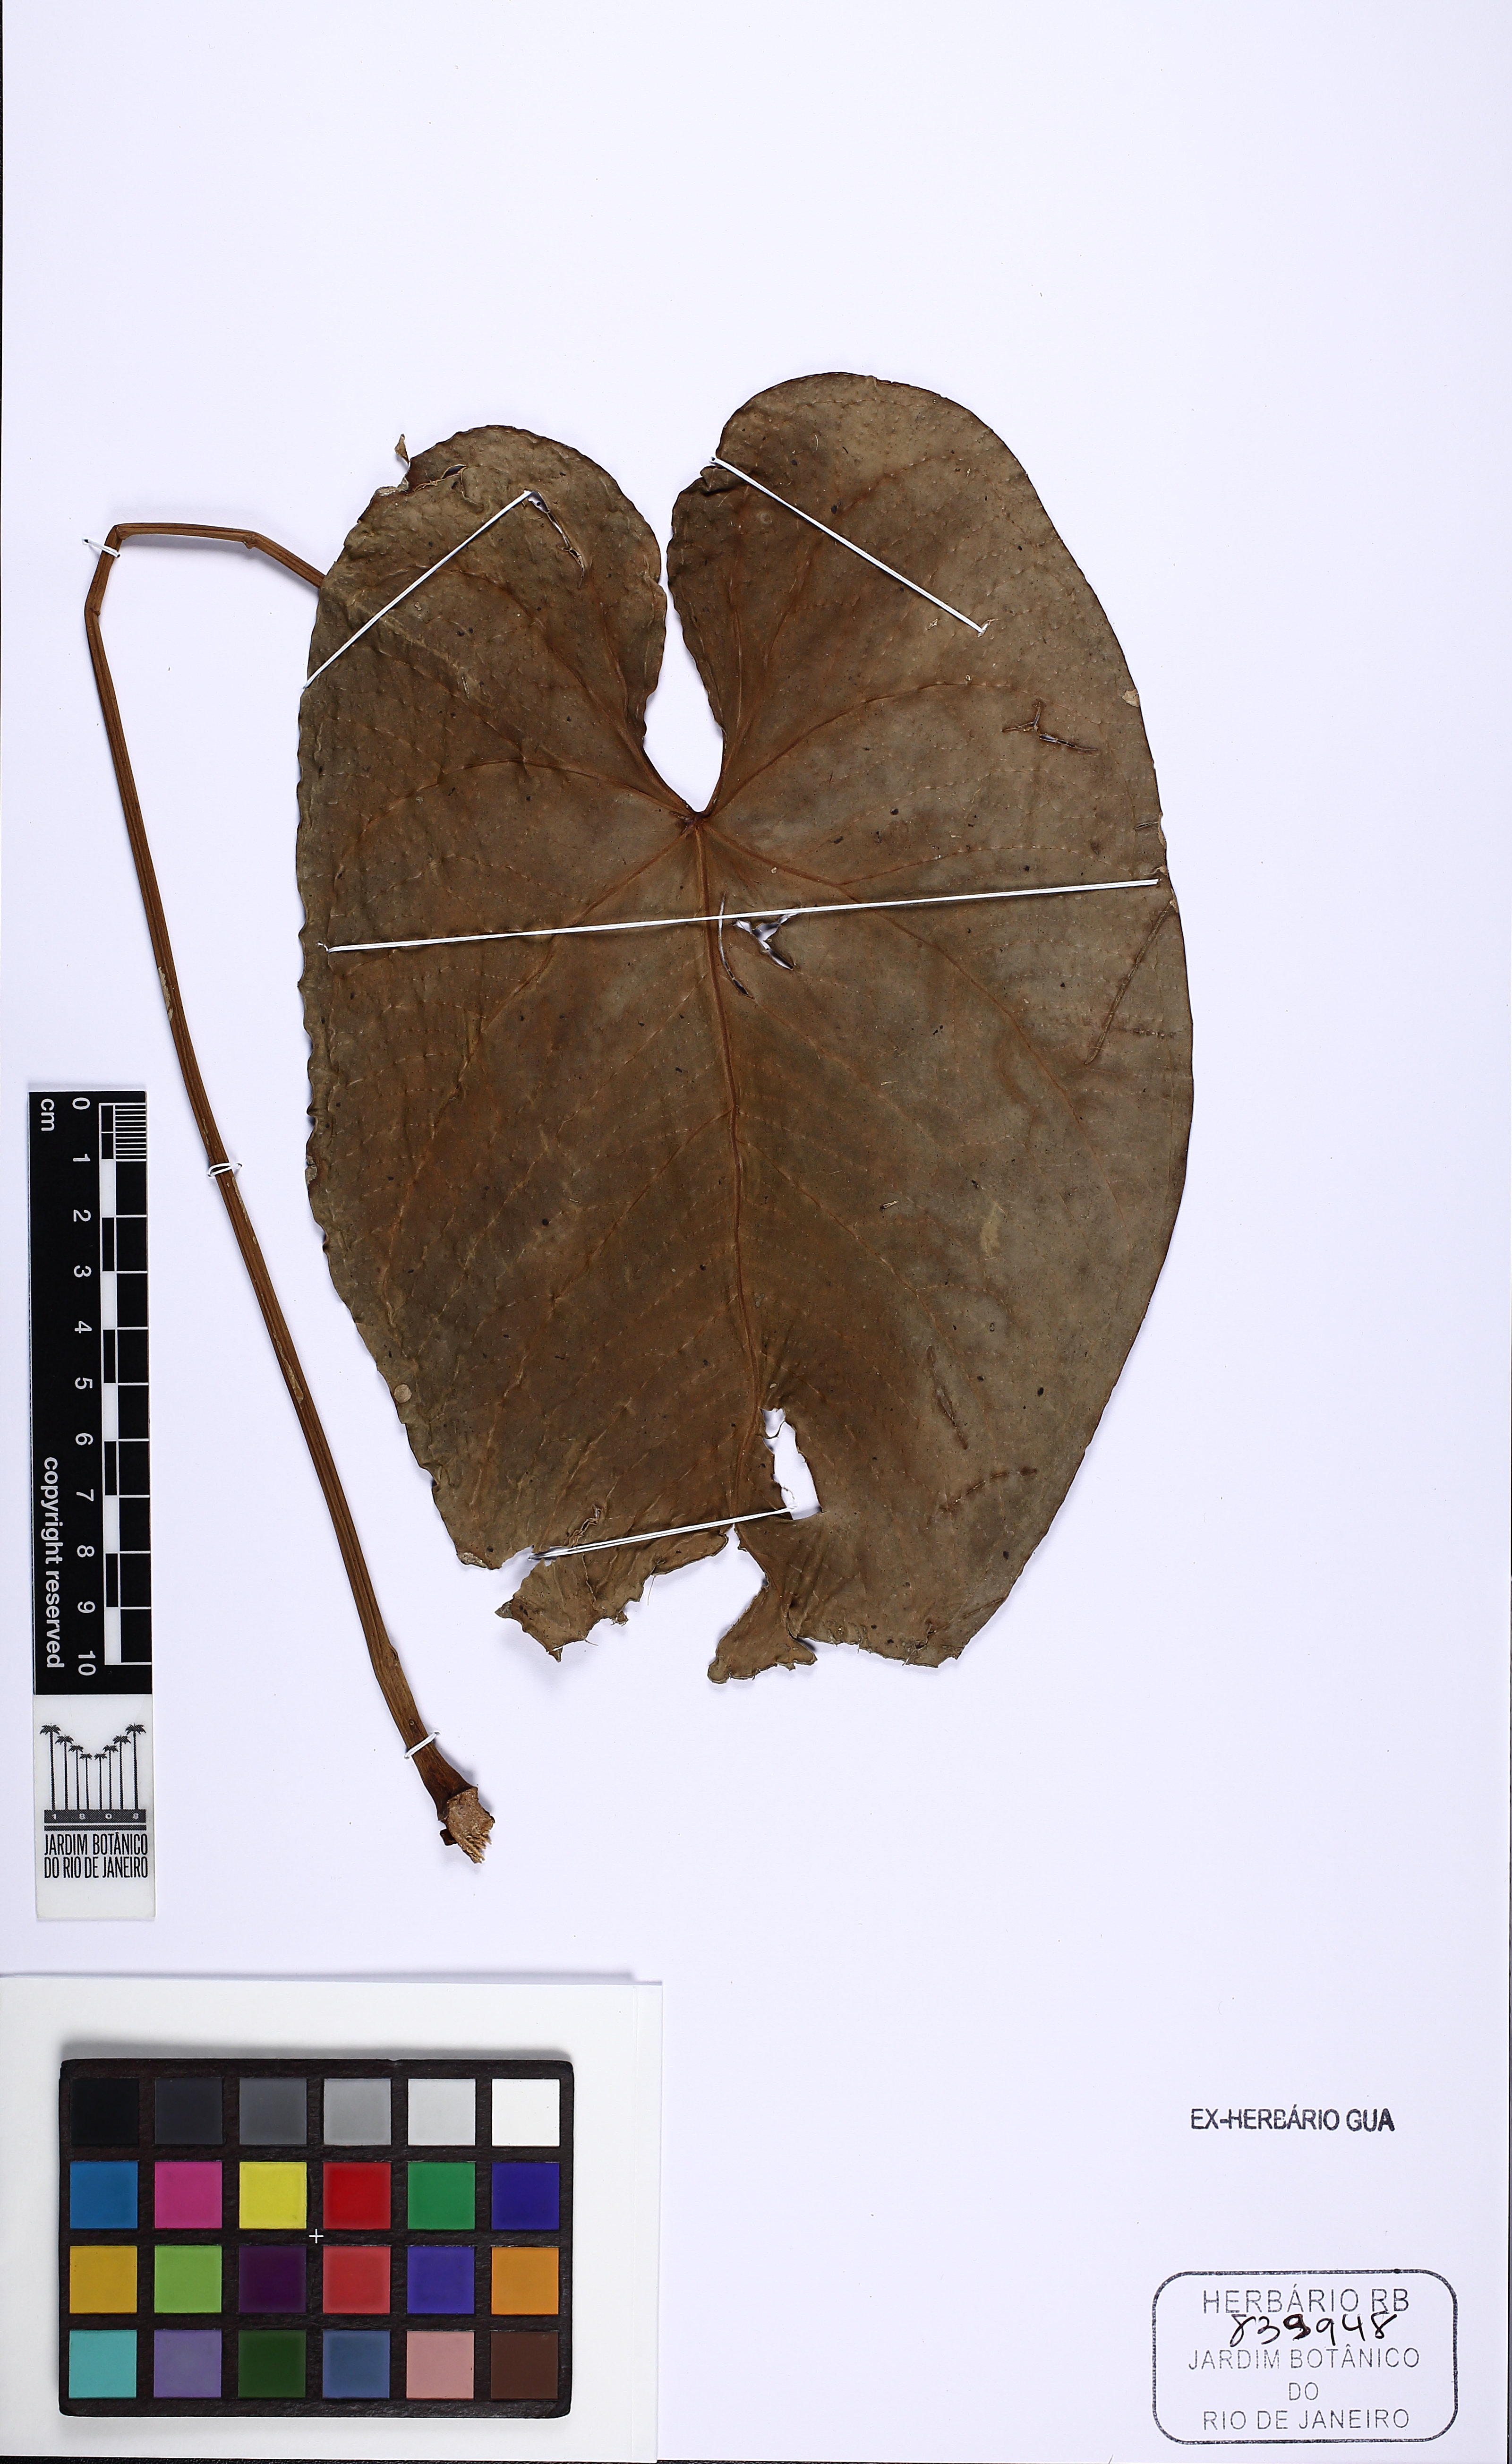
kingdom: Plantae
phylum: Tracheophyta
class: Liliopsida
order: Alismatales
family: Araceae
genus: Anthurium
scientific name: Anthurium andraeanum
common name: Flamingo-flower
